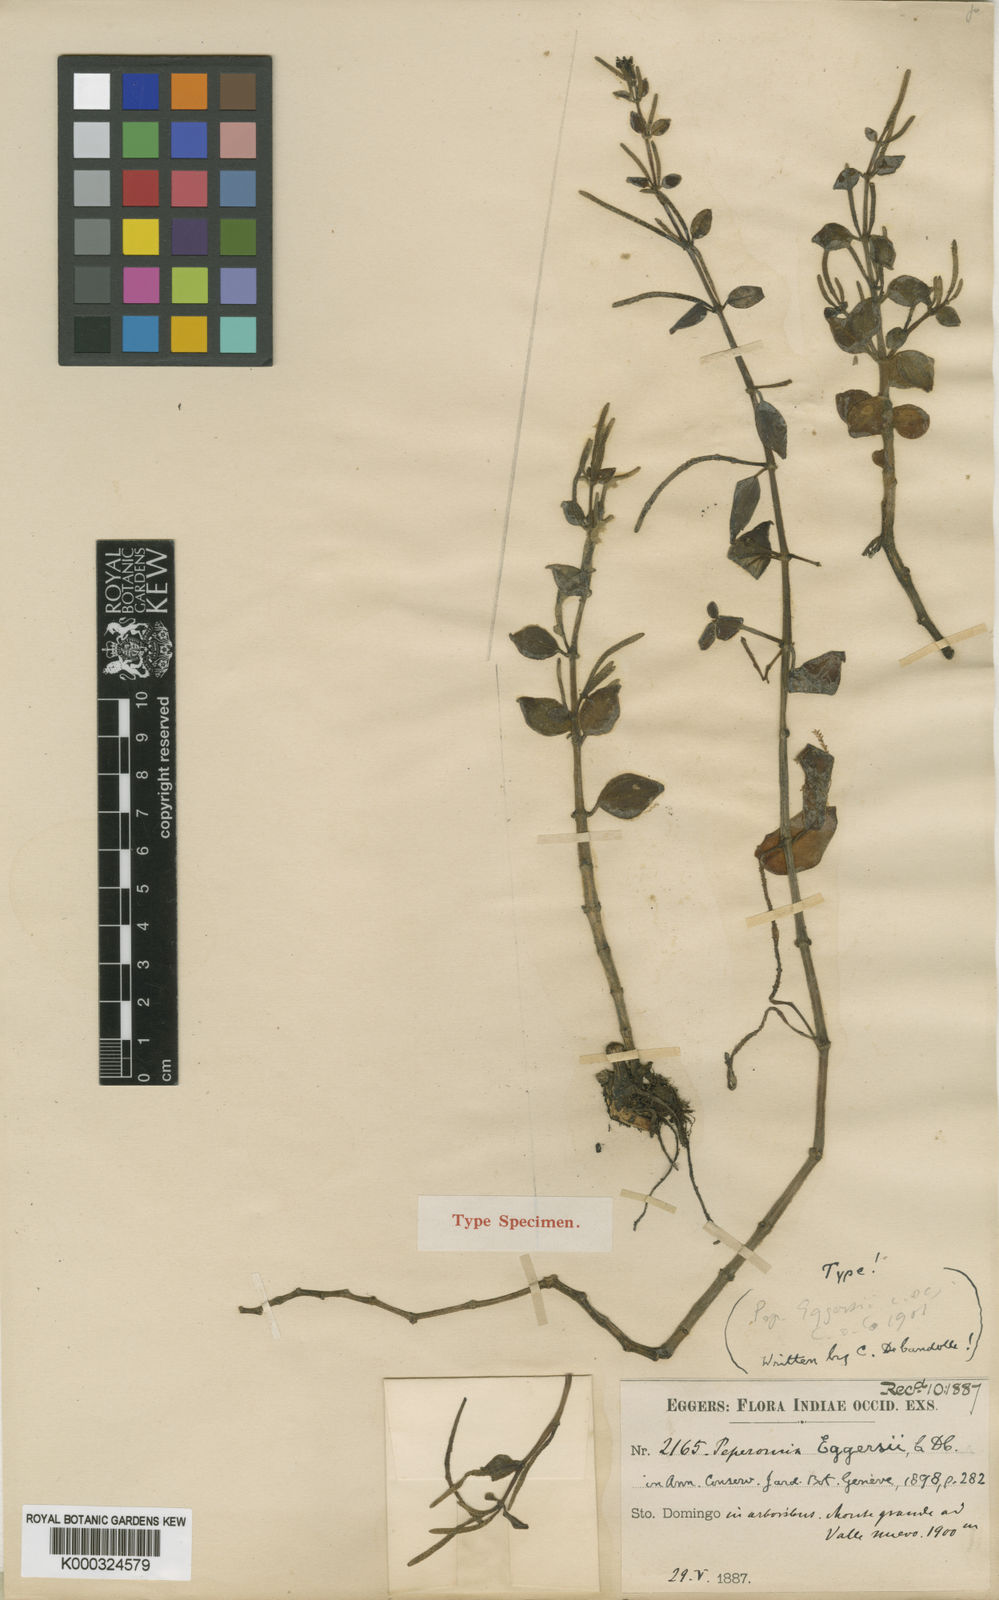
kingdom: Plantae
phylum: Tracheophyta
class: Magnoliopsida
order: Piperales
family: Piperaceae
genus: Peperomia
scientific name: Peperomia eggersii
